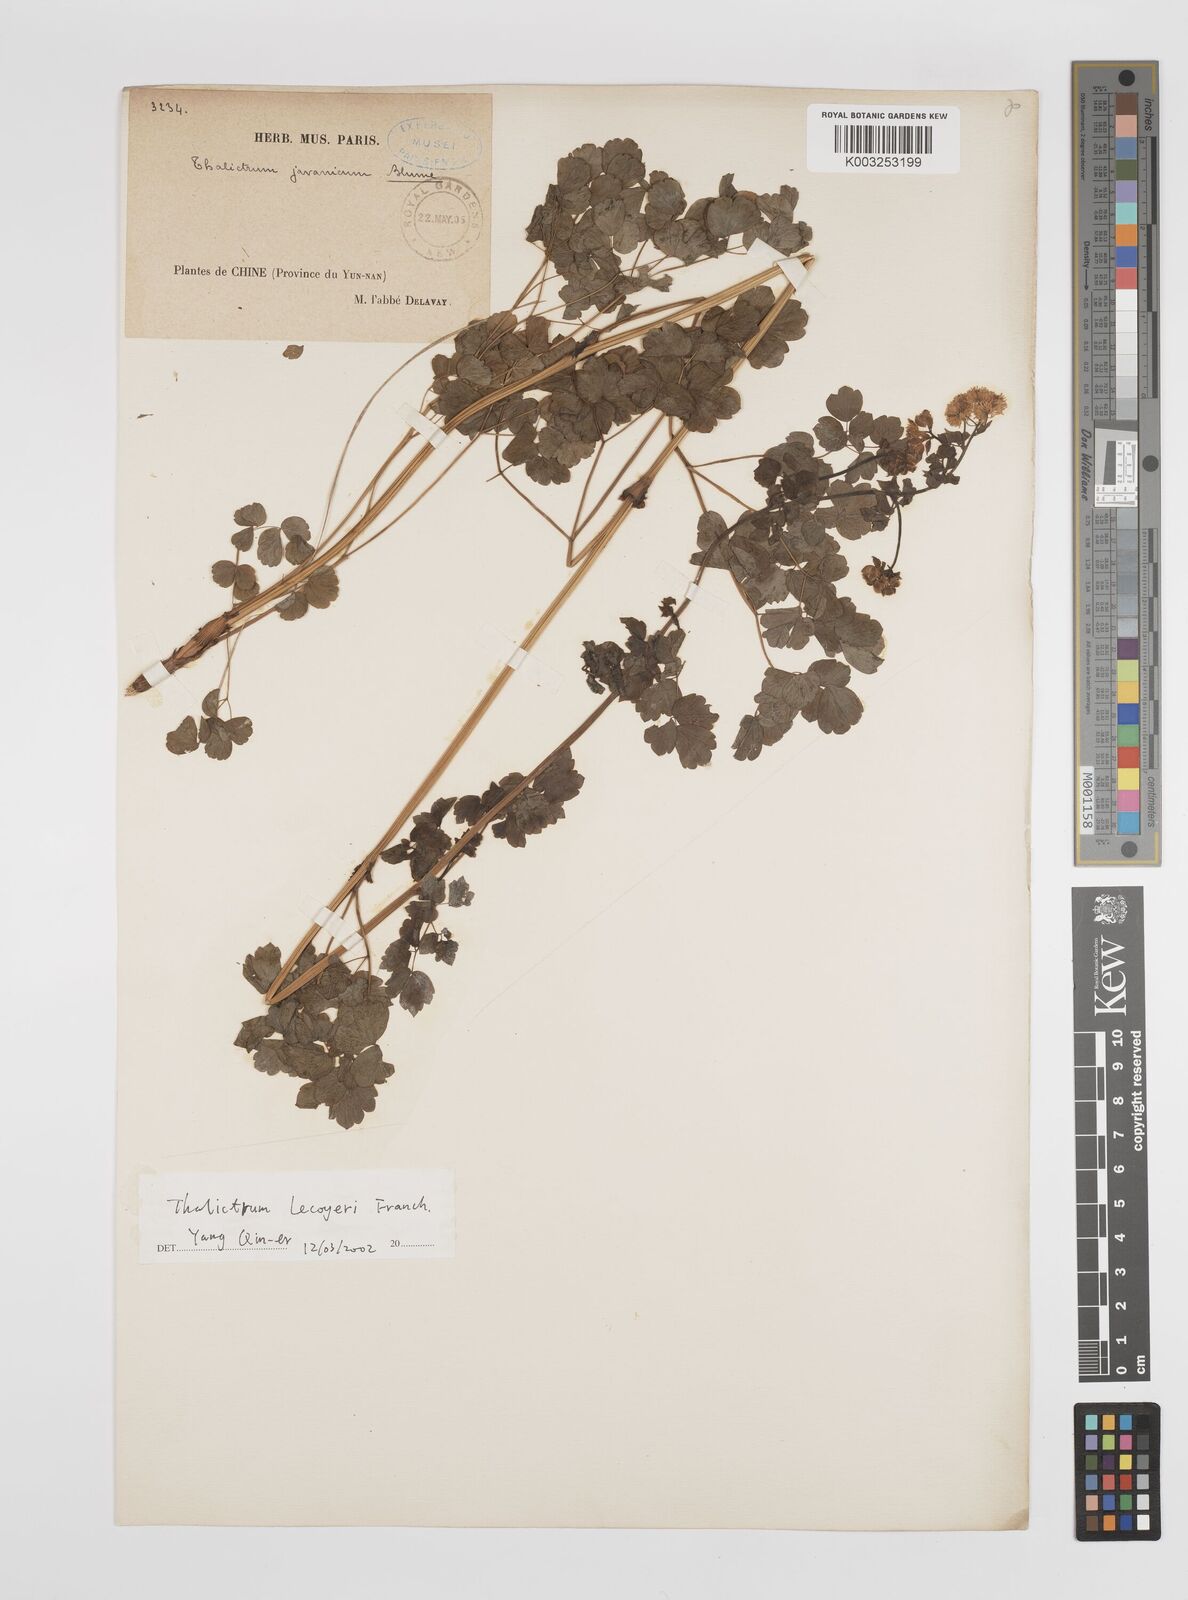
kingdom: Plantae
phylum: Tracheophyta
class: Magnoliopsida
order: Ranunculales
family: Ranunculaceae
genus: Thalictrum
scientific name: Thalictrum javanicum
